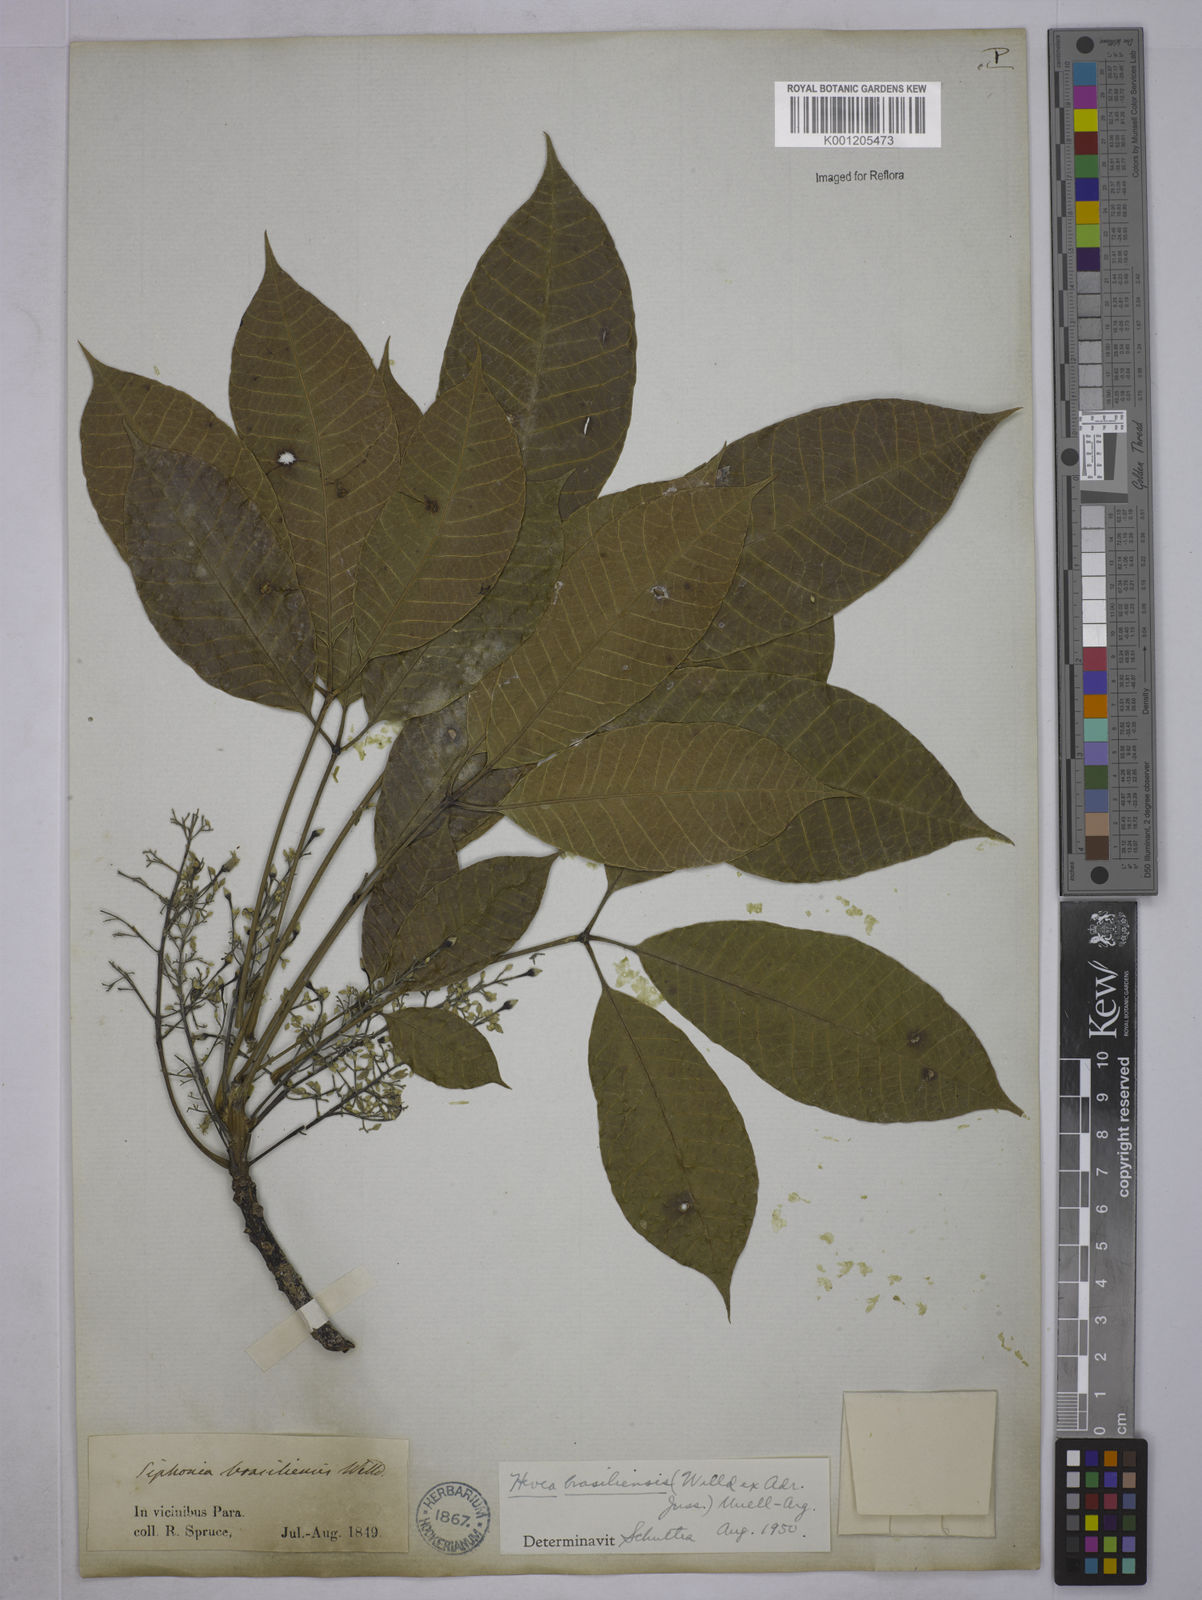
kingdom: Plantae
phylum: Tracheophyta
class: Magnoliopsida
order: Malpighiales
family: Euphorbiaceae
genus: Hevea
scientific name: Hevea
